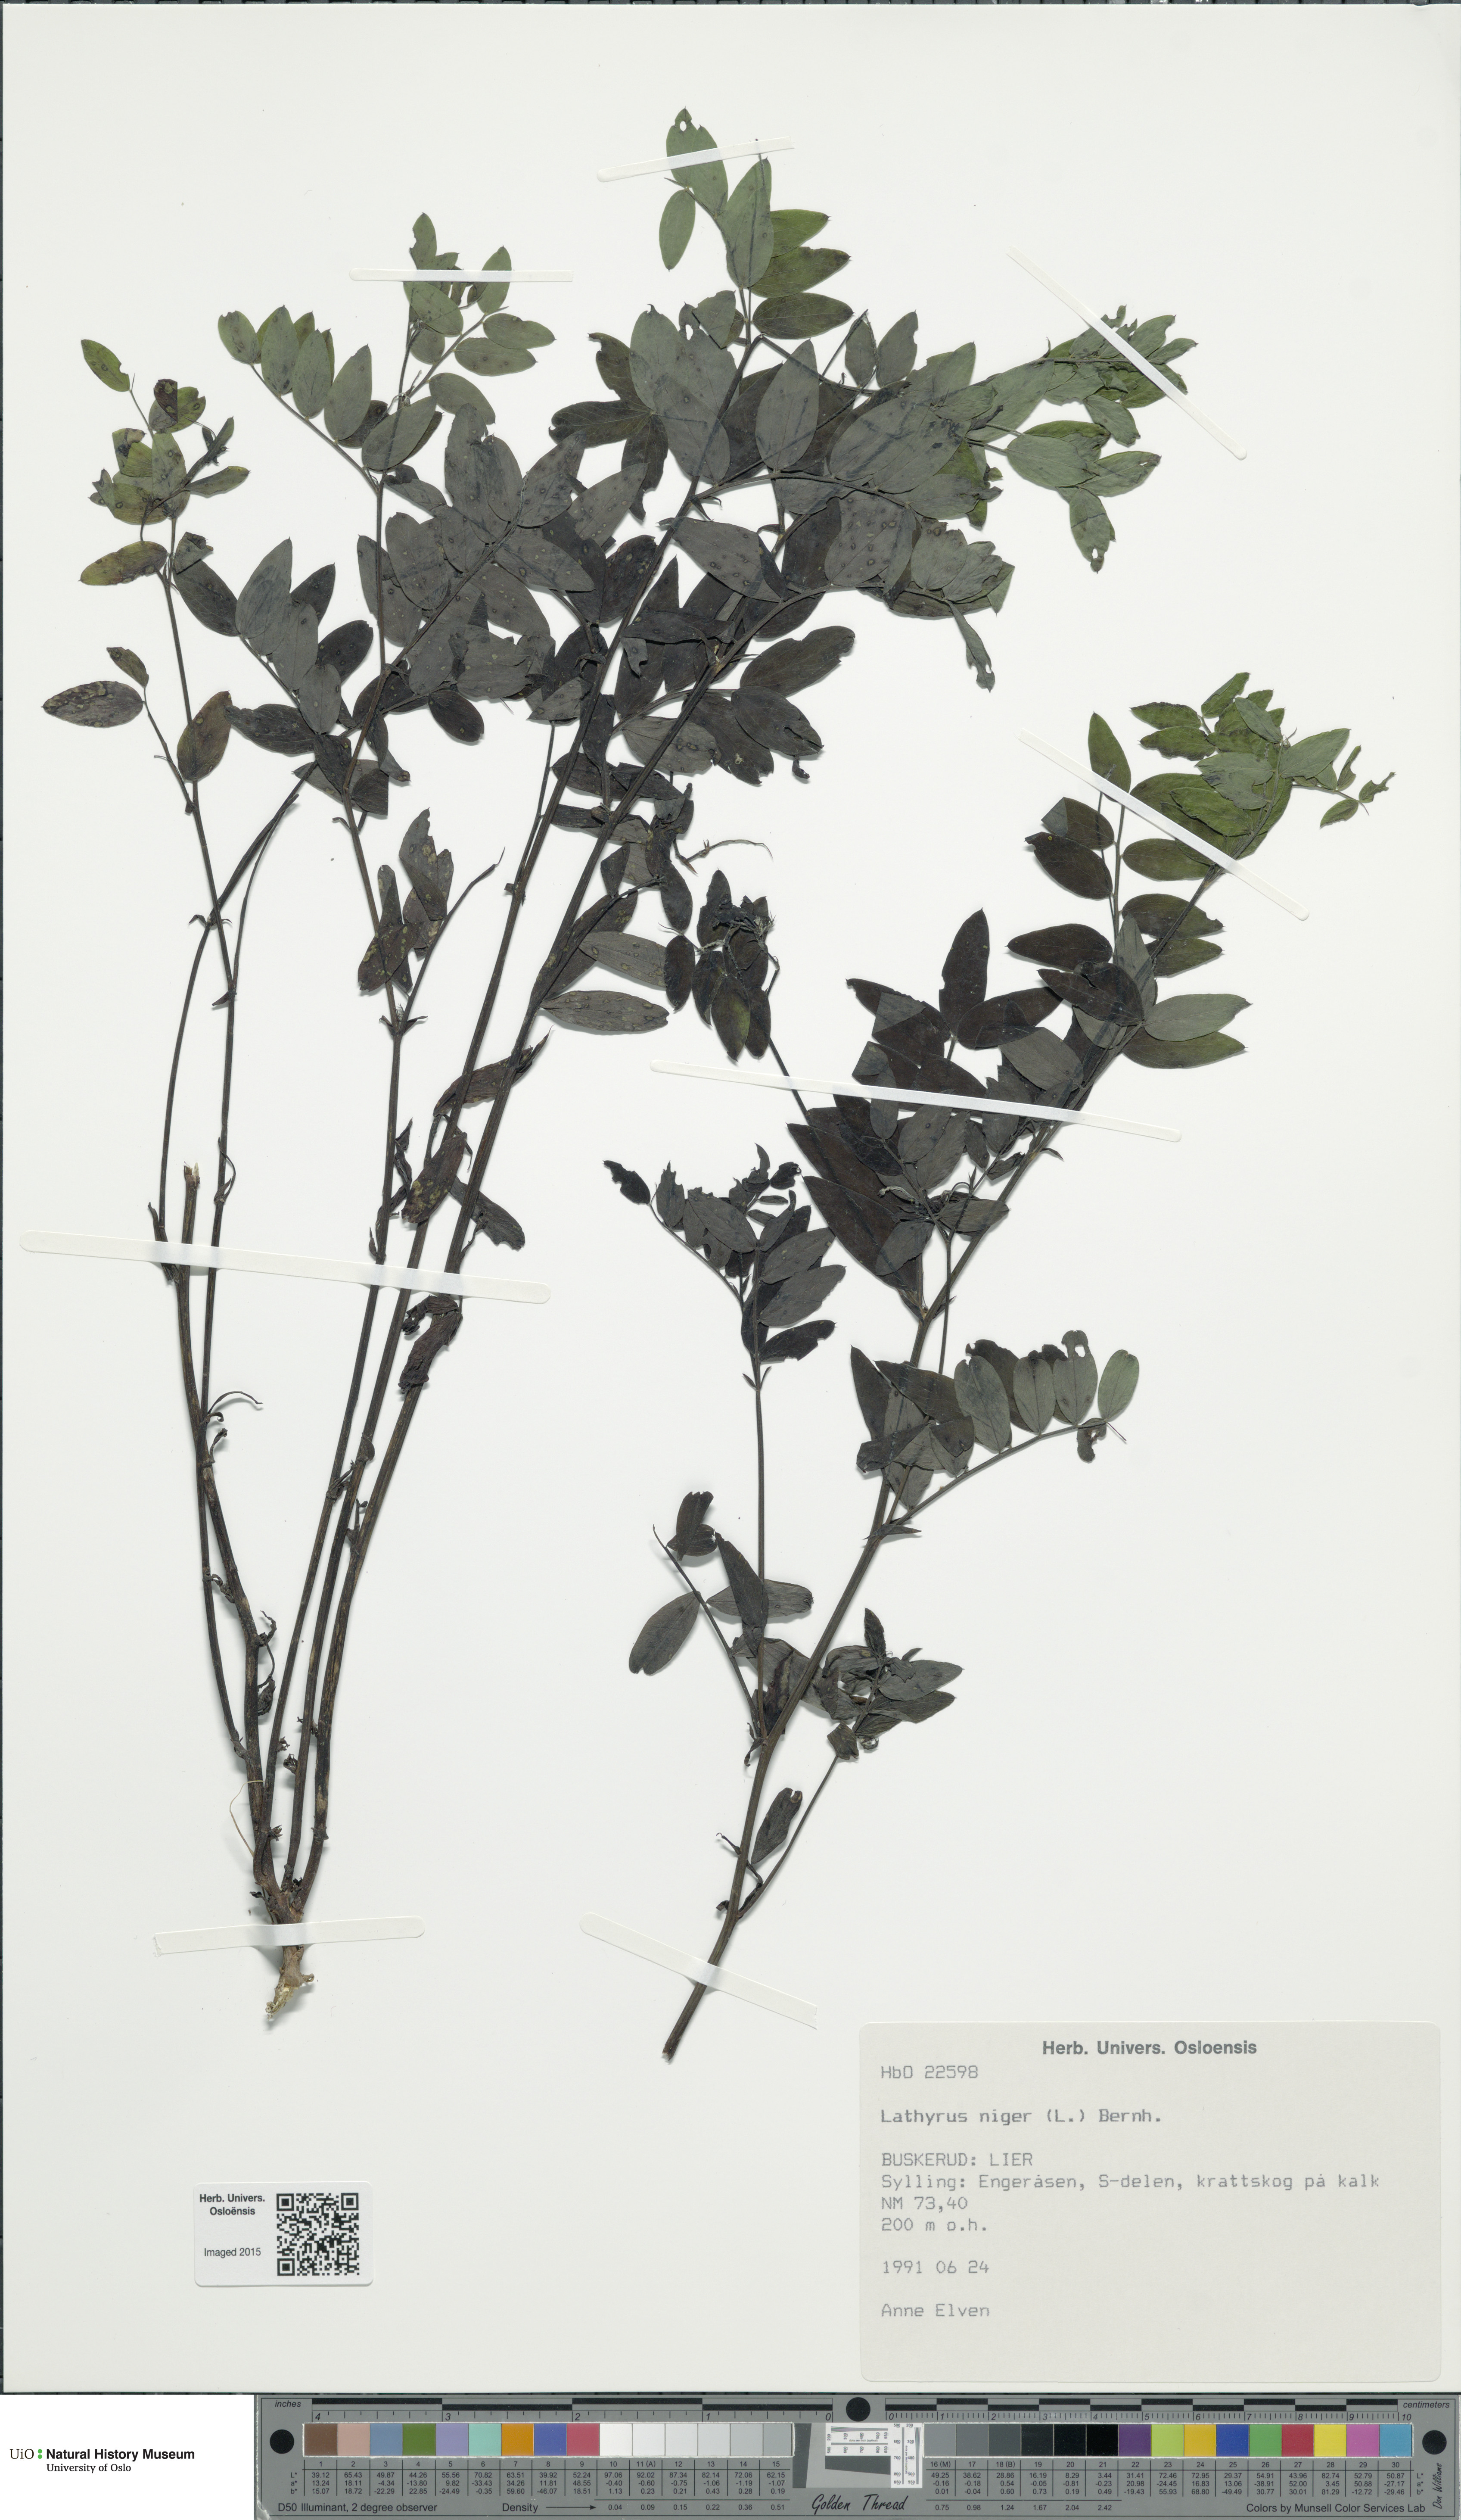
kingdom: Plantae
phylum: Tracheophyta
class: Magnoliopsida
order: Fabales
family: Fabaceae
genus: Lathyrus
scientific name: Lathyrus niger
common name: Black pea
